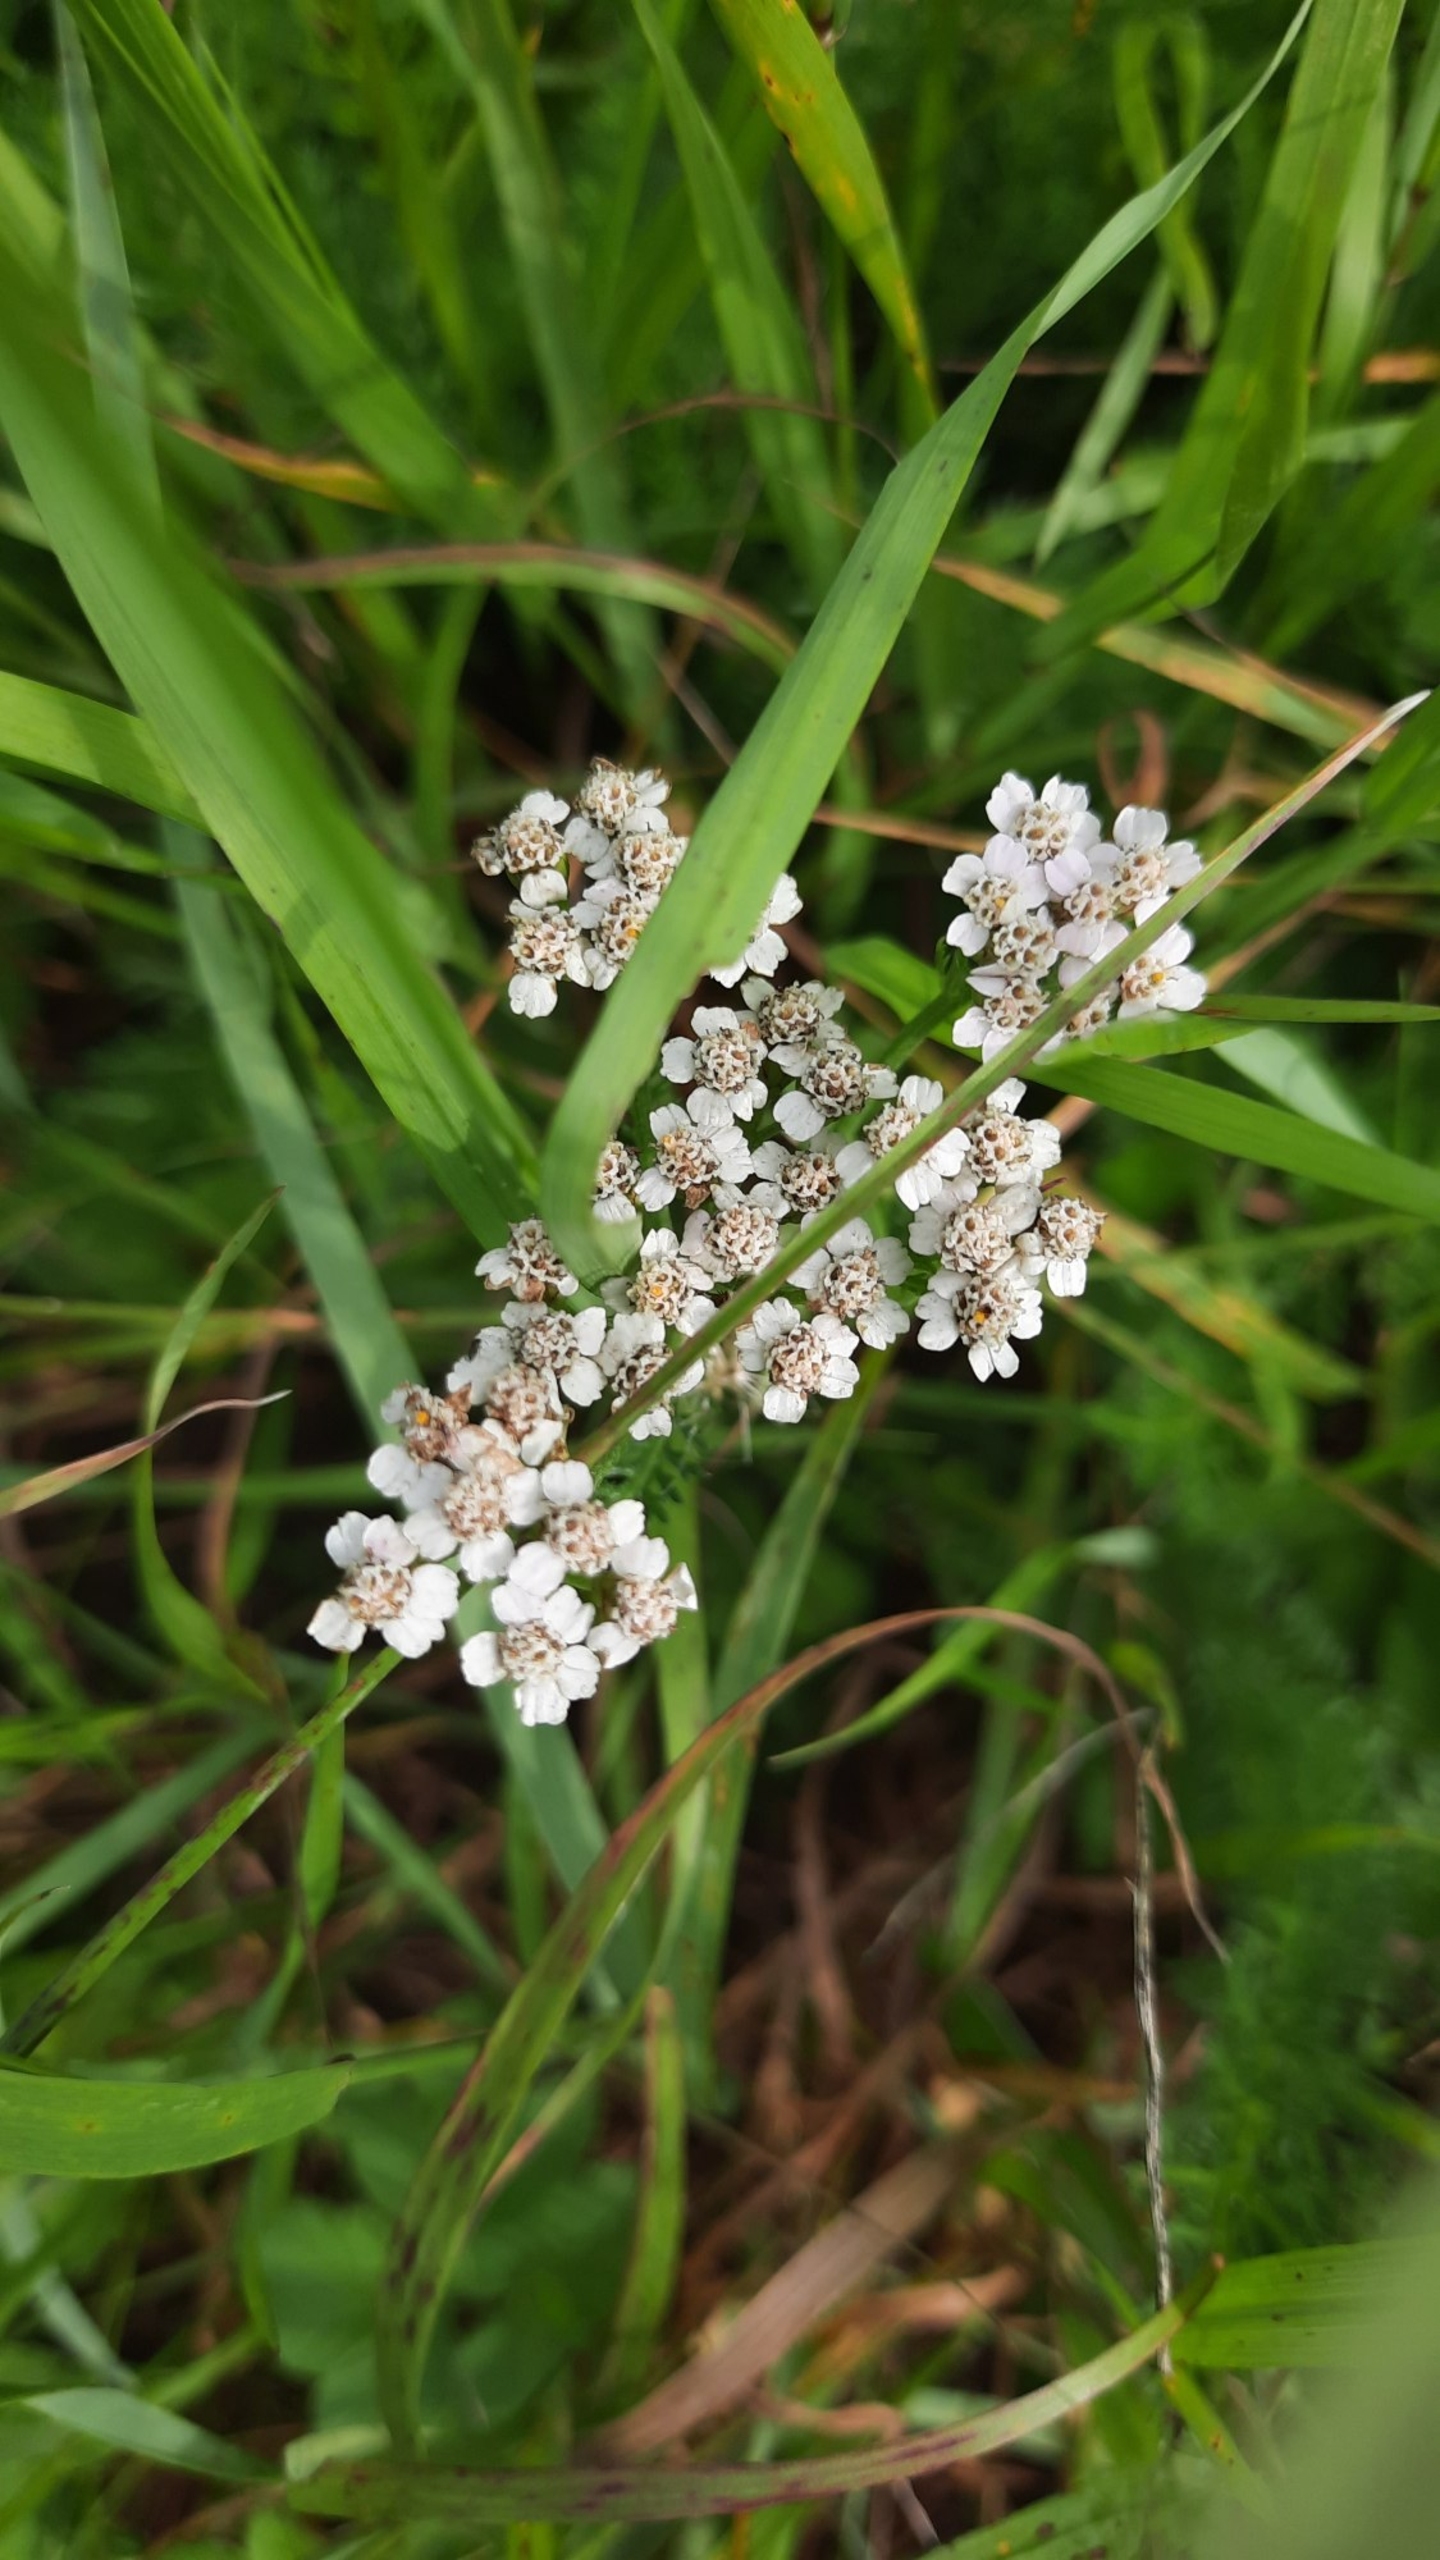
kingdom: Plantae
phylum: Tracheophyta
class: Magnoliopsida
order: Asterales
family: Asteraceae
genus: Achillea
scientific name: Achillea millefolium
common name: Almindelig røllike
